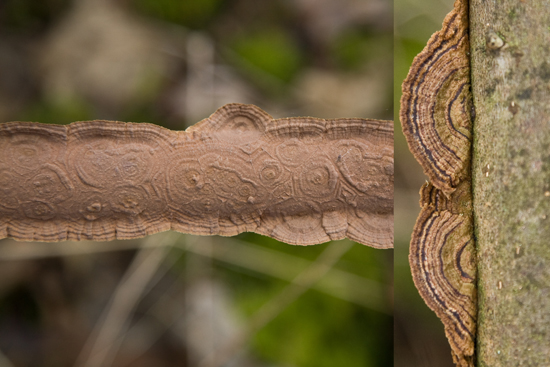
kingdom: Fungi
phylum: Basidiomycota
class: Agaricomycetes
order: Hymenochaetales
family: Hymenochaetaceae
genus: Hydnoporia
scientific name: Hydnoporia tabacina
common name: tobaksbrun ruslædersvamp
